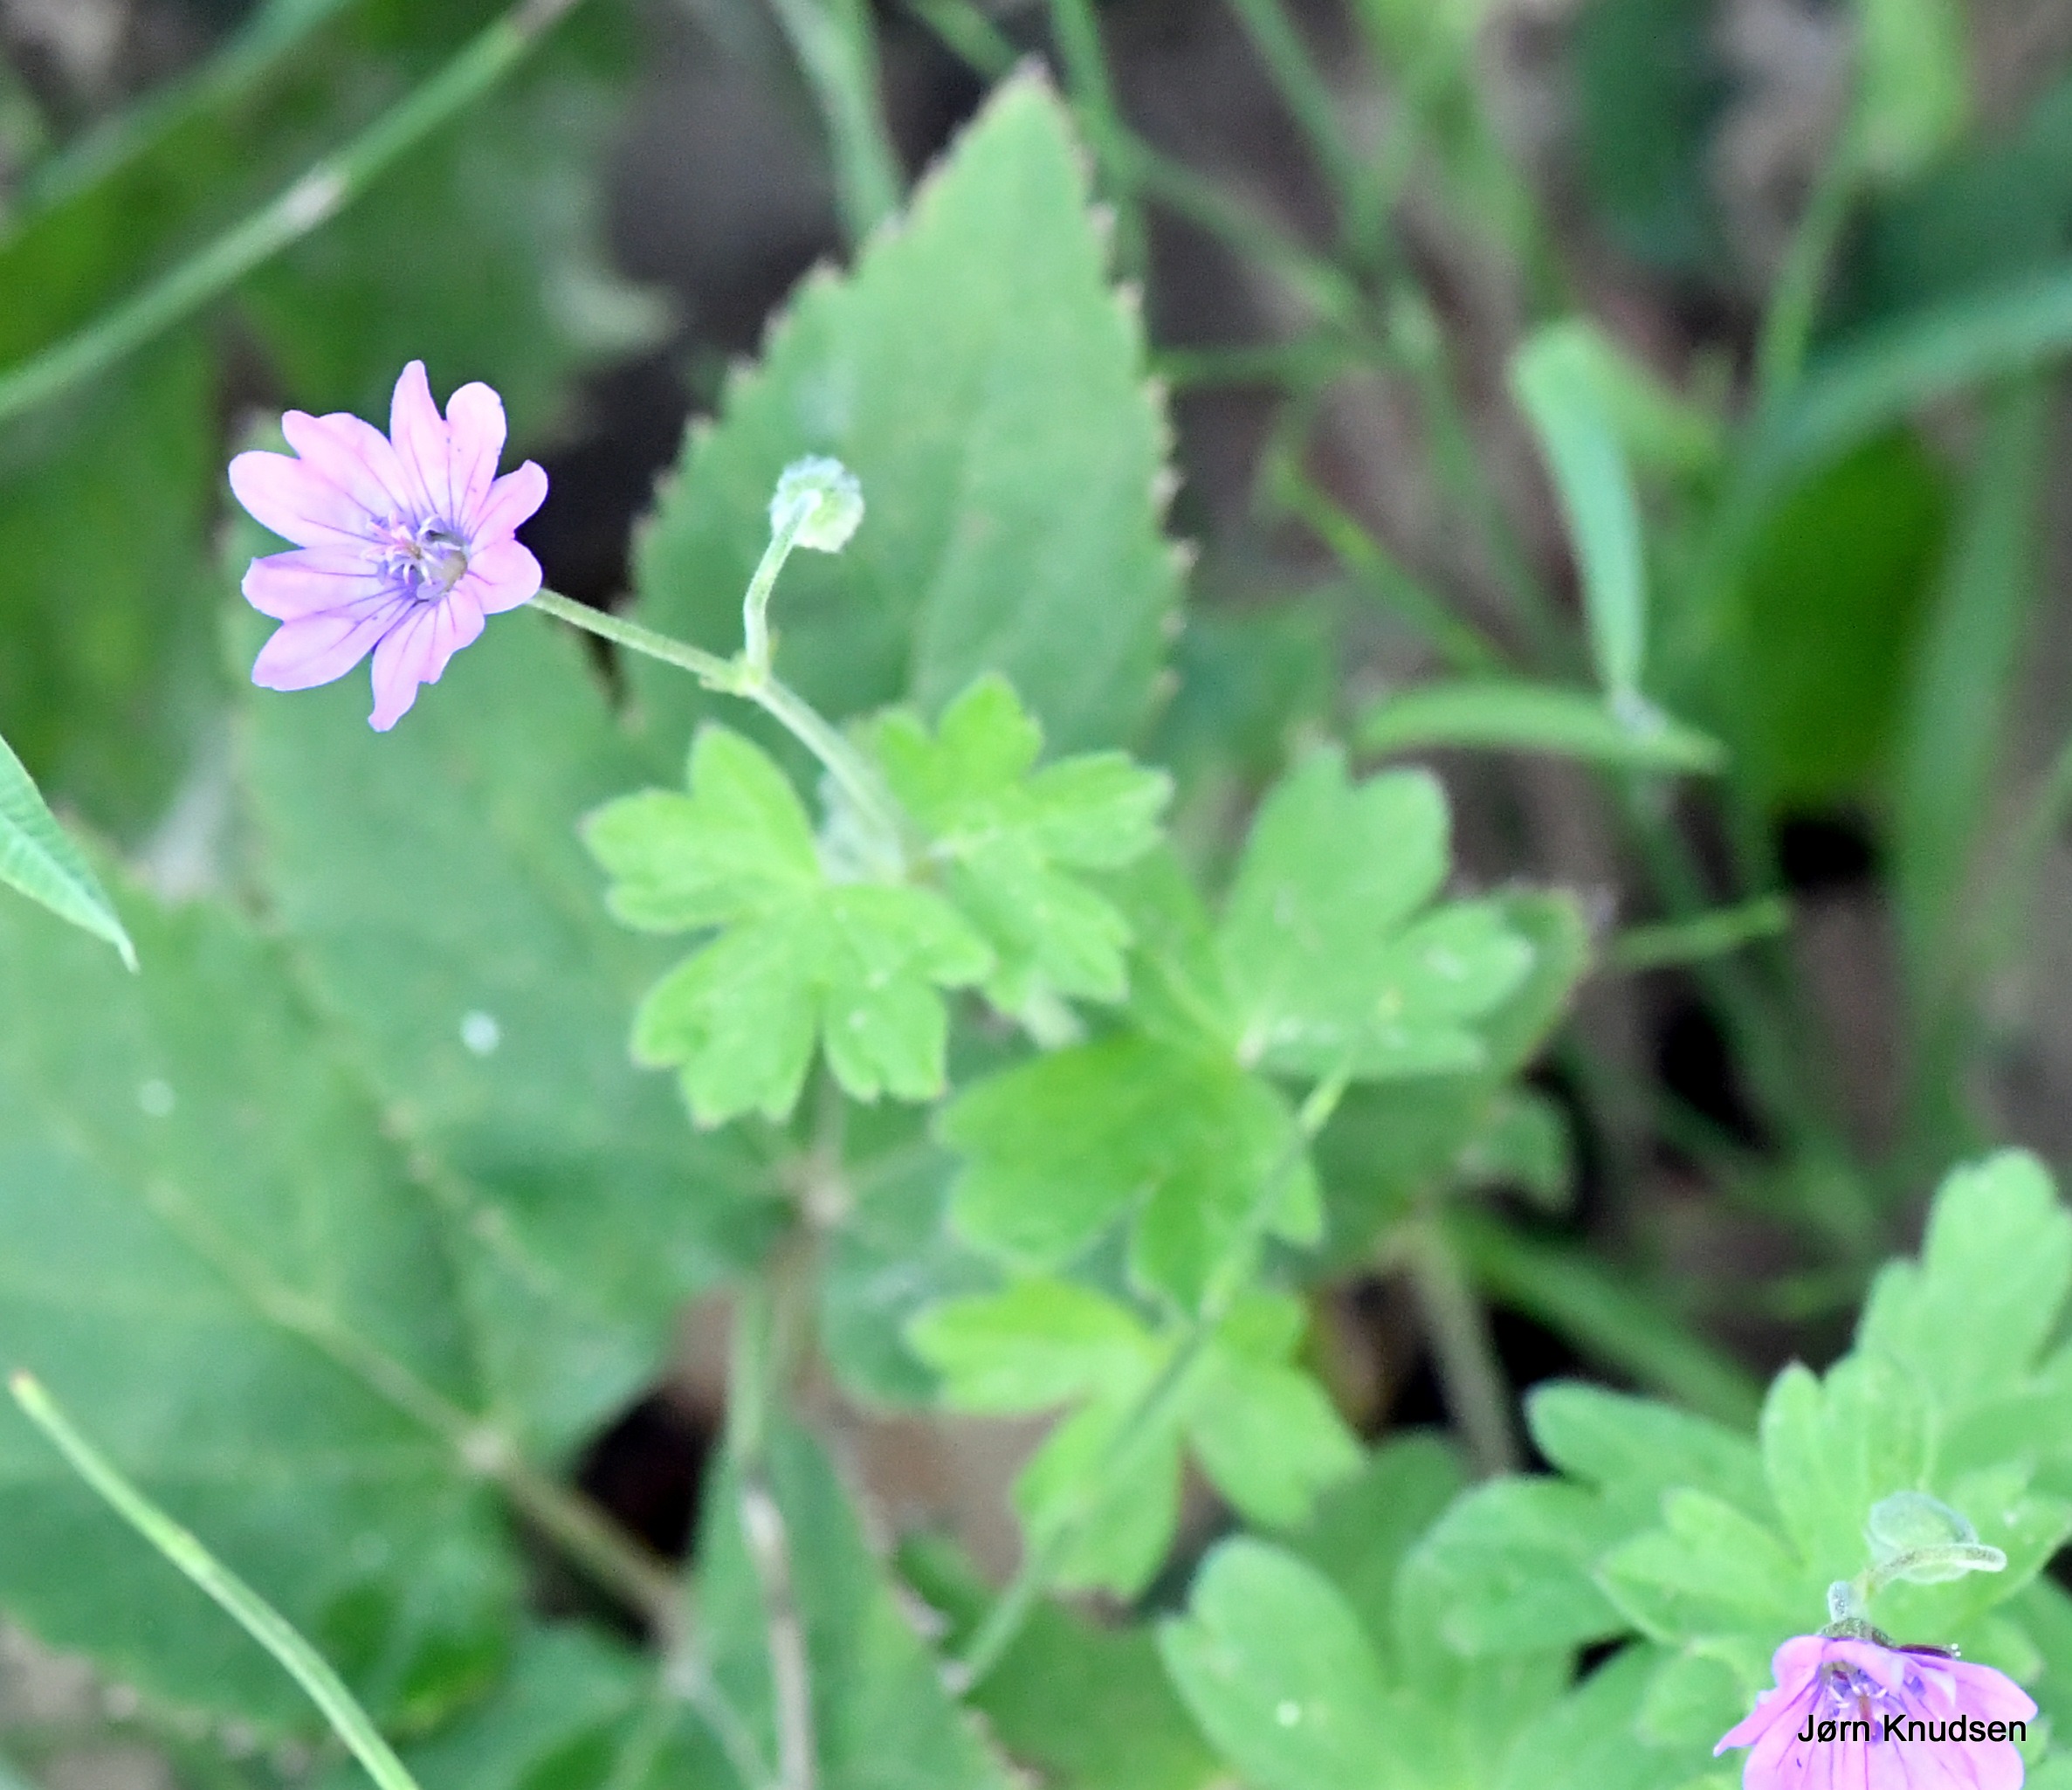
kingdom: Plantae
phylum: Tracheophyta
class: Magnoliopsida
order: Geraniales
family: Geraniaceae
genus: Geranium
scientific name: Geranium pyrenaicum
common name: Pyrenæisk storkenæb
